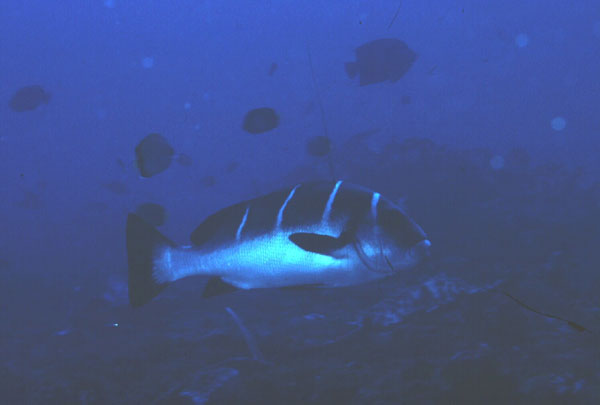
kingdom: Animalia
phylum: Chordata
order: Perciformes
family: Haemulidae
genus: Plectorhinchus
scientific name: Plectorhinchus playfairi
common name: Whitebarred rubberlip
